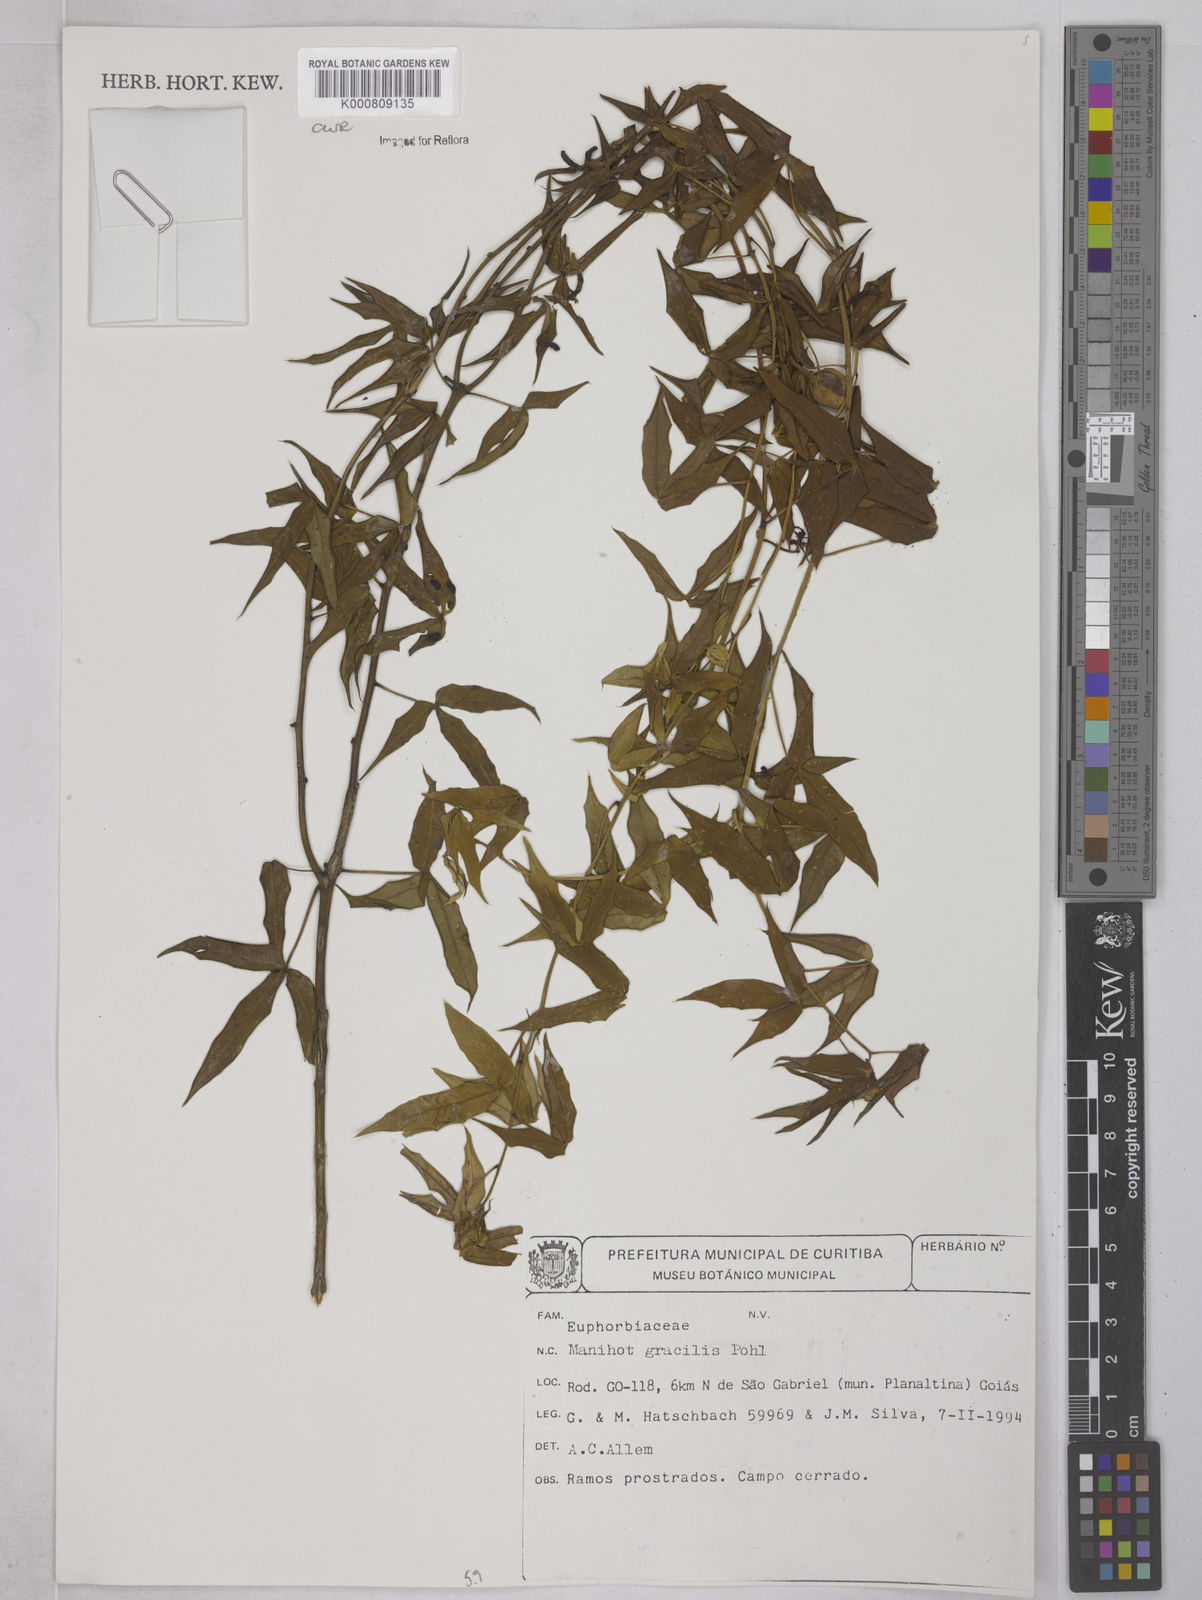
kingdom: Plantae
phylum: Tracheophyta
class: Magnoliopsida
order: Malpighiales
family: Euphorbiaceae
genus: Manihot
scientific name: Manihot gracilis
